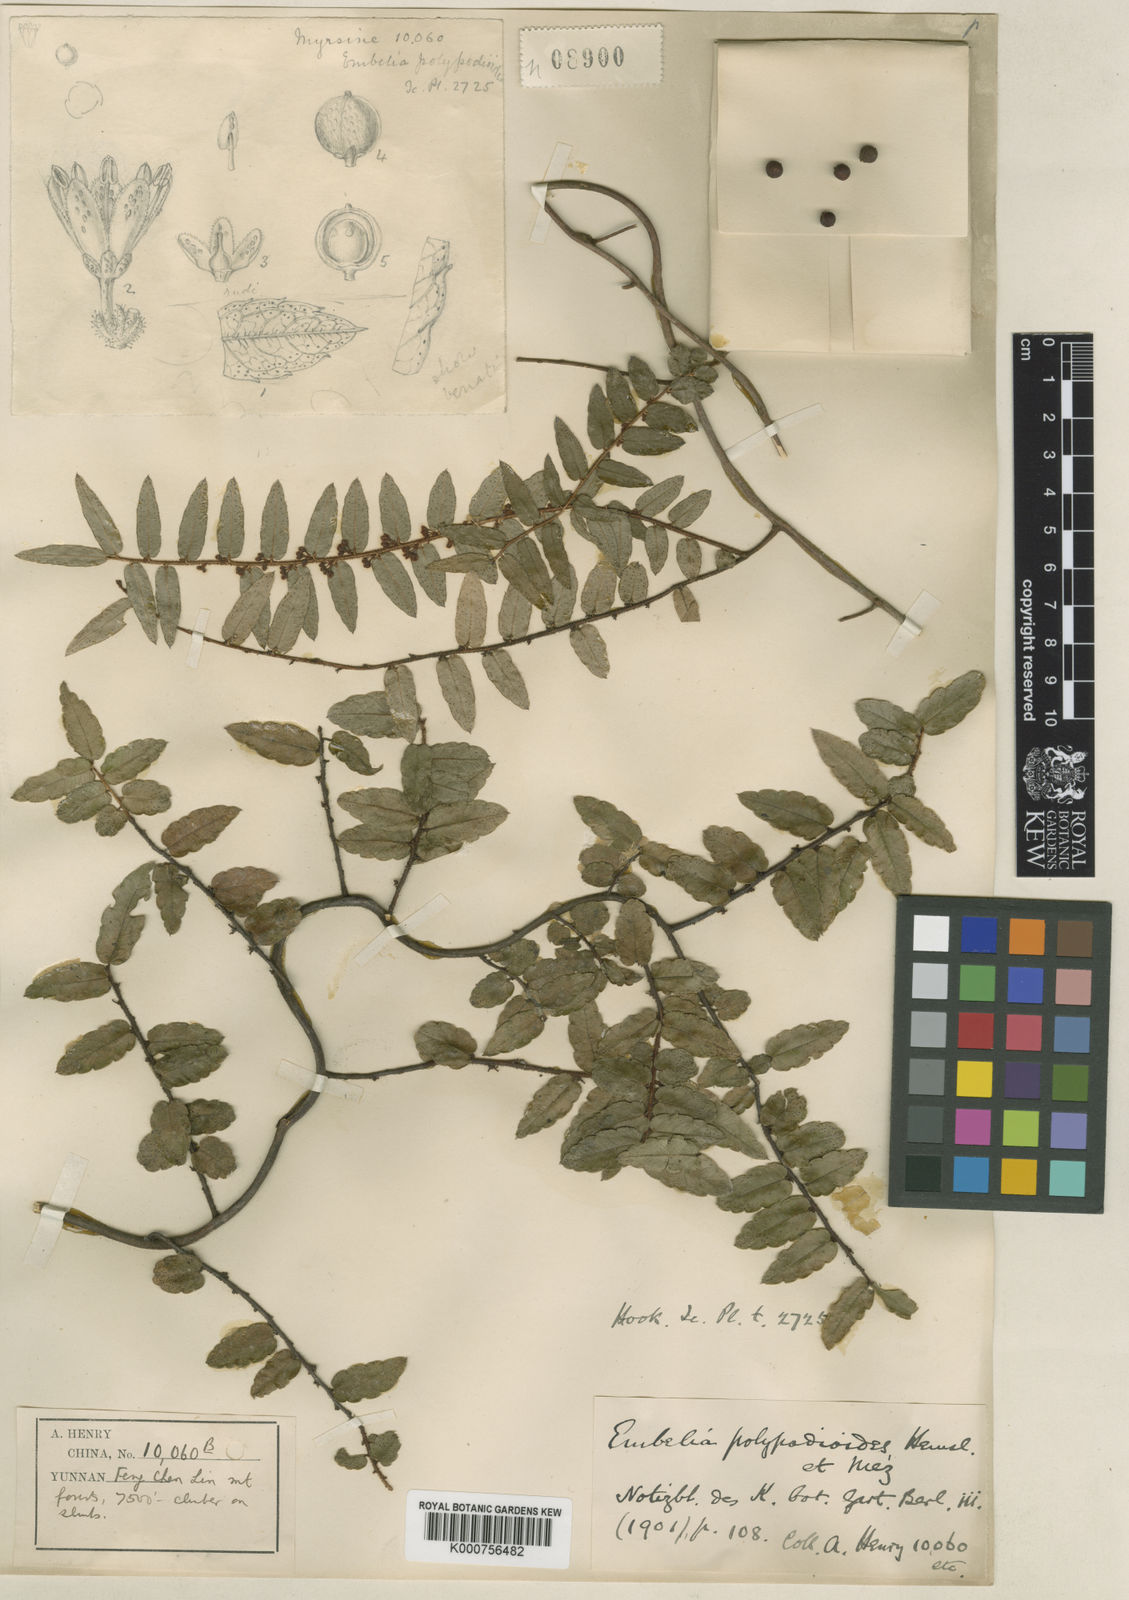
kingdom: Plantae
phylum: Tracheophyta
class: Magnoliopsida
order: Ericales
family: Primulaceae
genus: Embelia
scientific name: Embelia polypodioides
